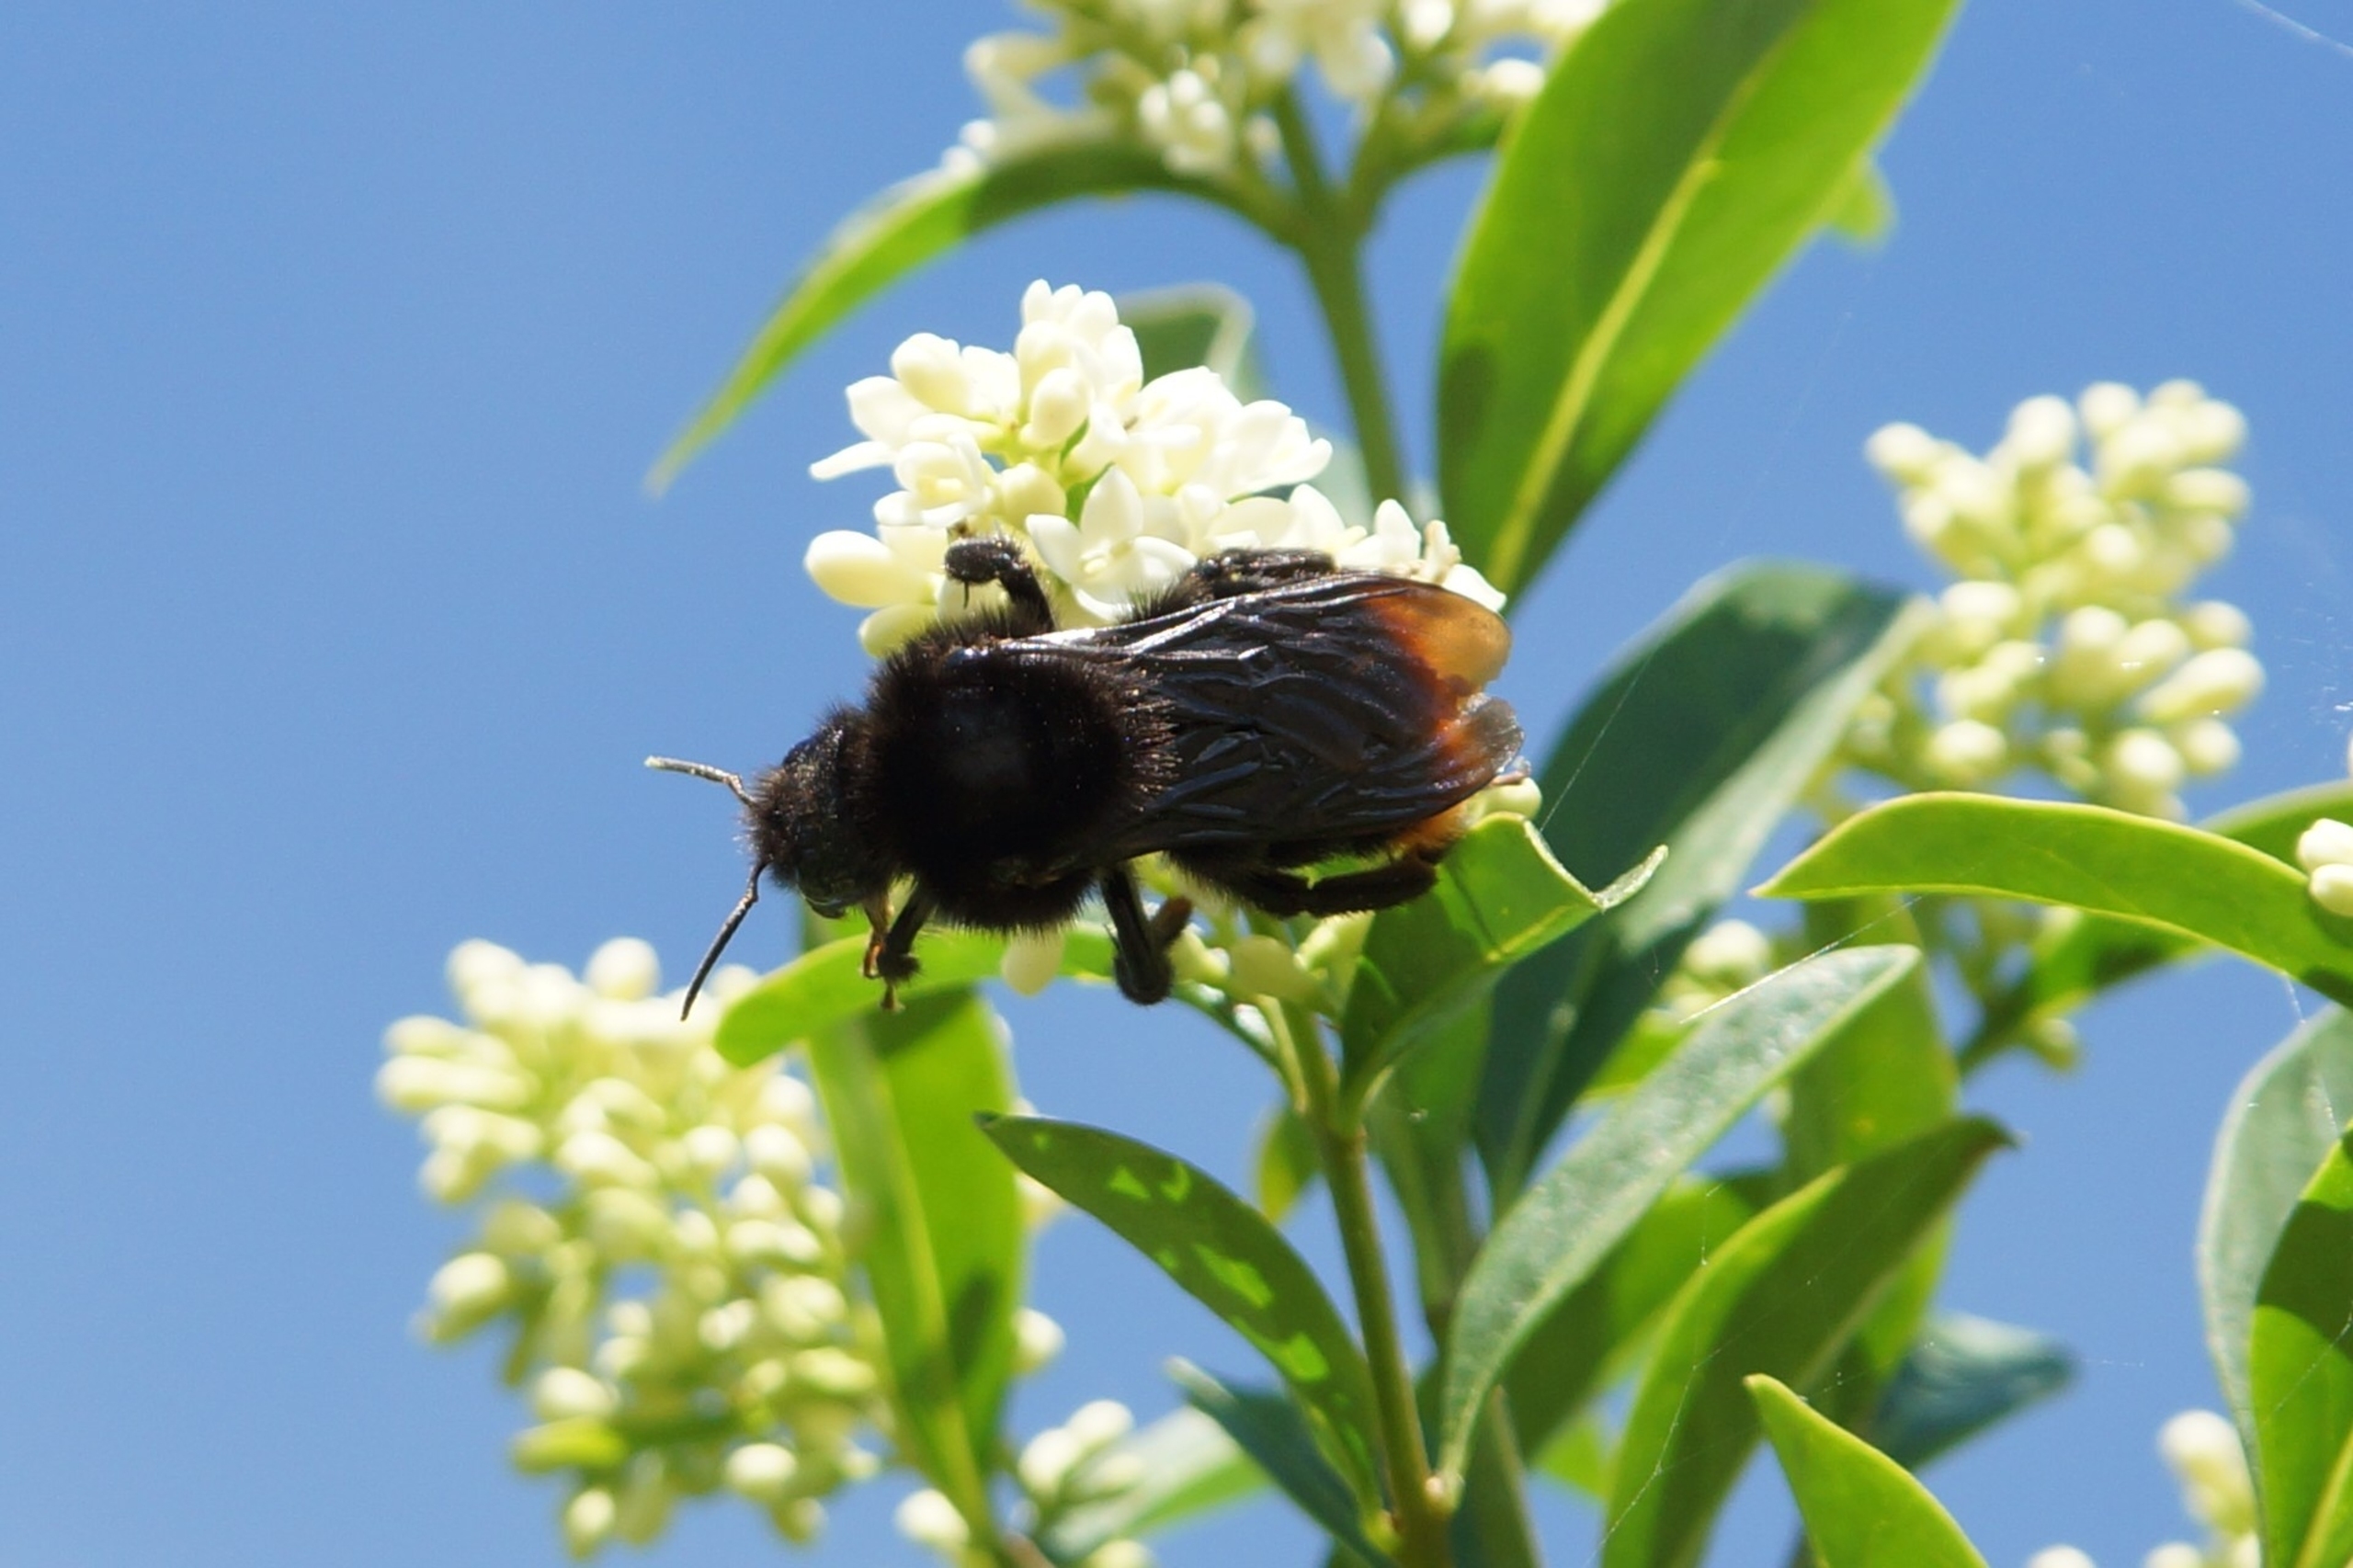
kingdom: Animalia
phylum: Arthropoda
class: Insecta
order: Hymenoptera
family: Apidae
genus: Bombus
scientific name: Bombus rupestris
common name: Stensnyltehumle
